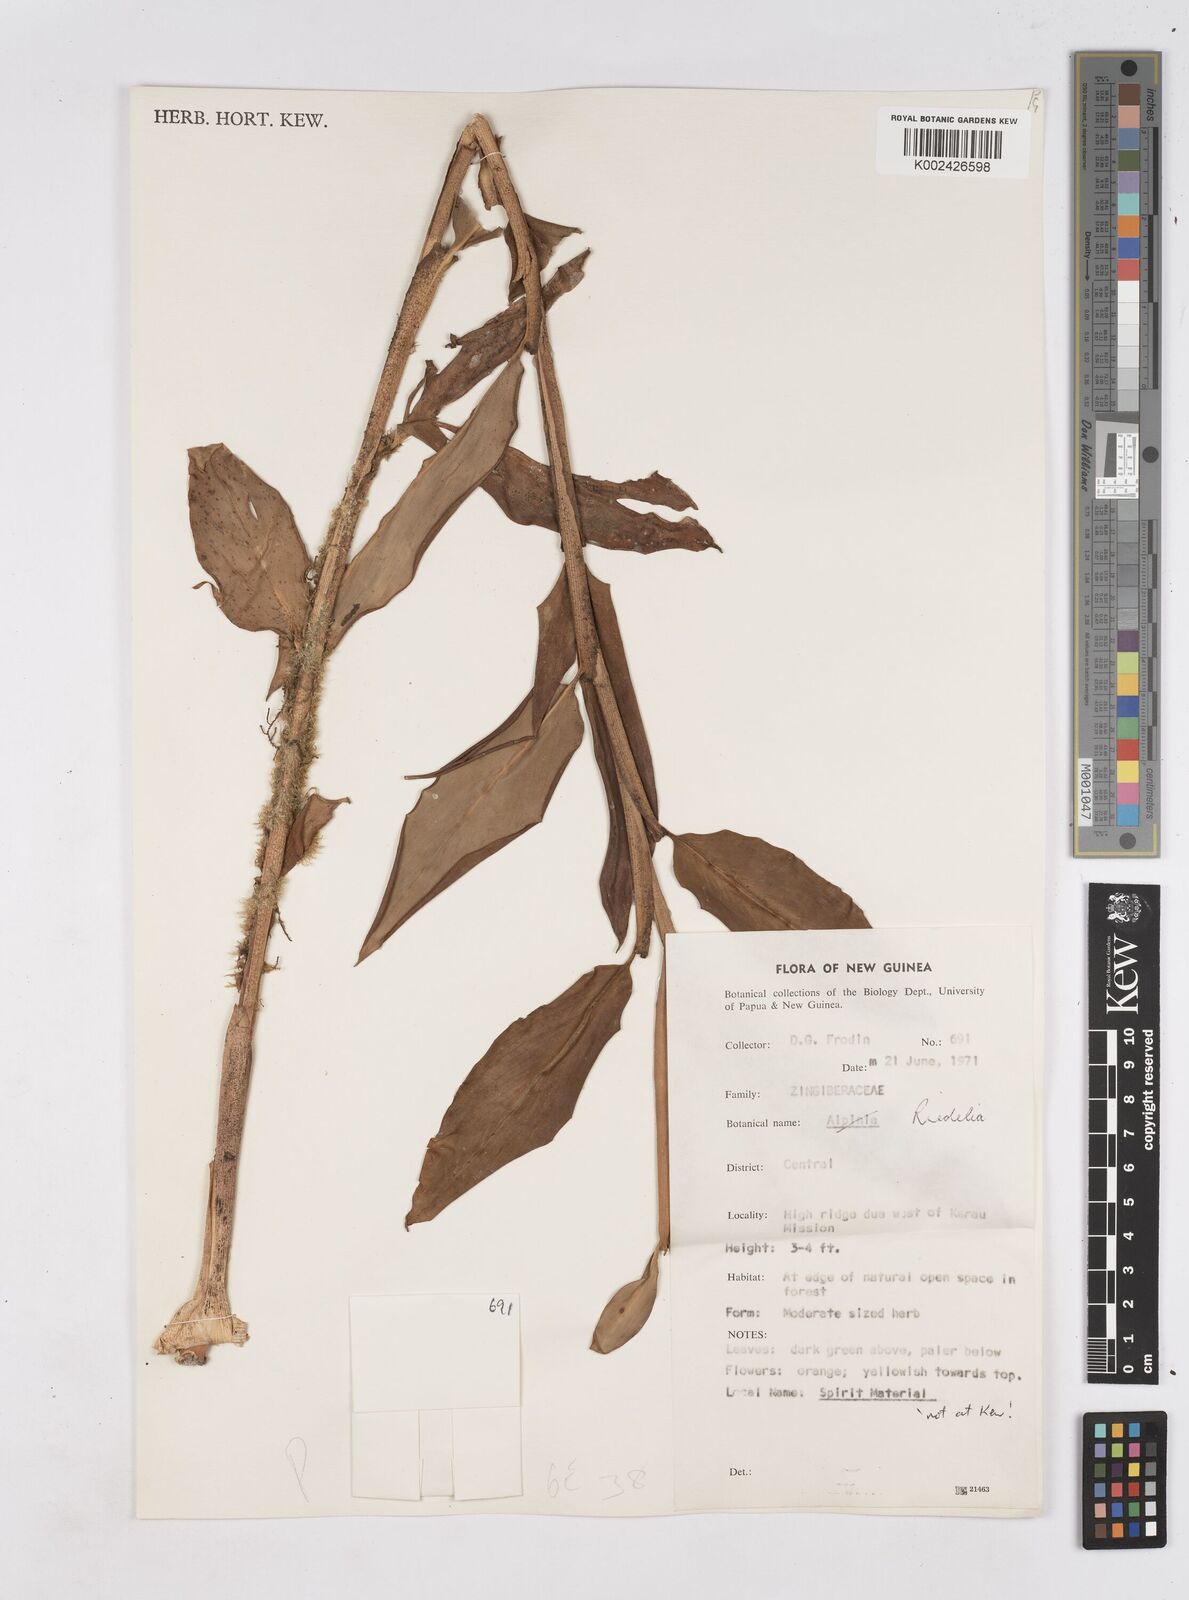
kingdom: Plantae
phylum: Tracheophyta
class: Liliopsida
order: Zingiberales
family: Zingiberaceae
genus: Riedelia
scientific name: Riedelia
